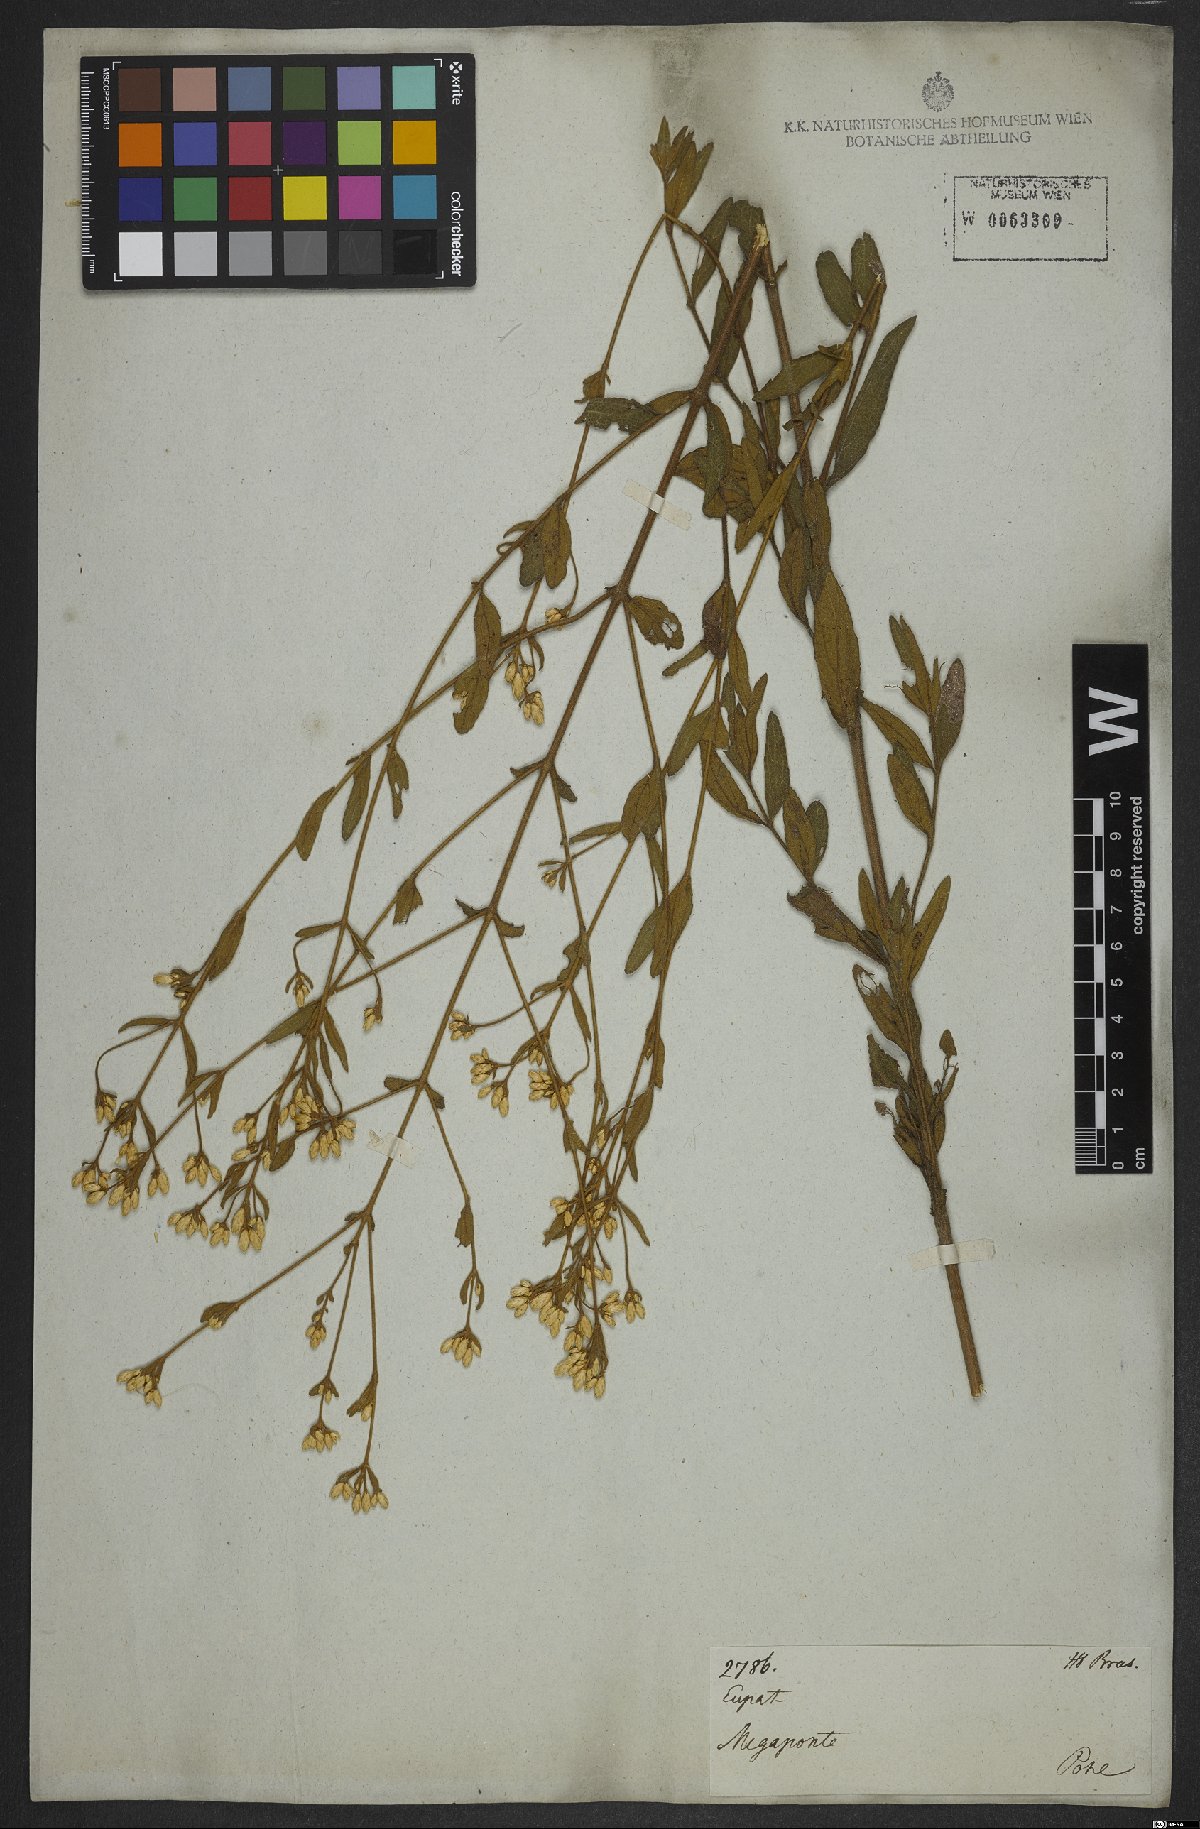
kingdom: Plantae
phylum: Tracheophyta
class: Magnoliopsida
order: Asterales
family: Asteraceae
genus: Chromolaena
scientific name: Chromolaena horminoides
